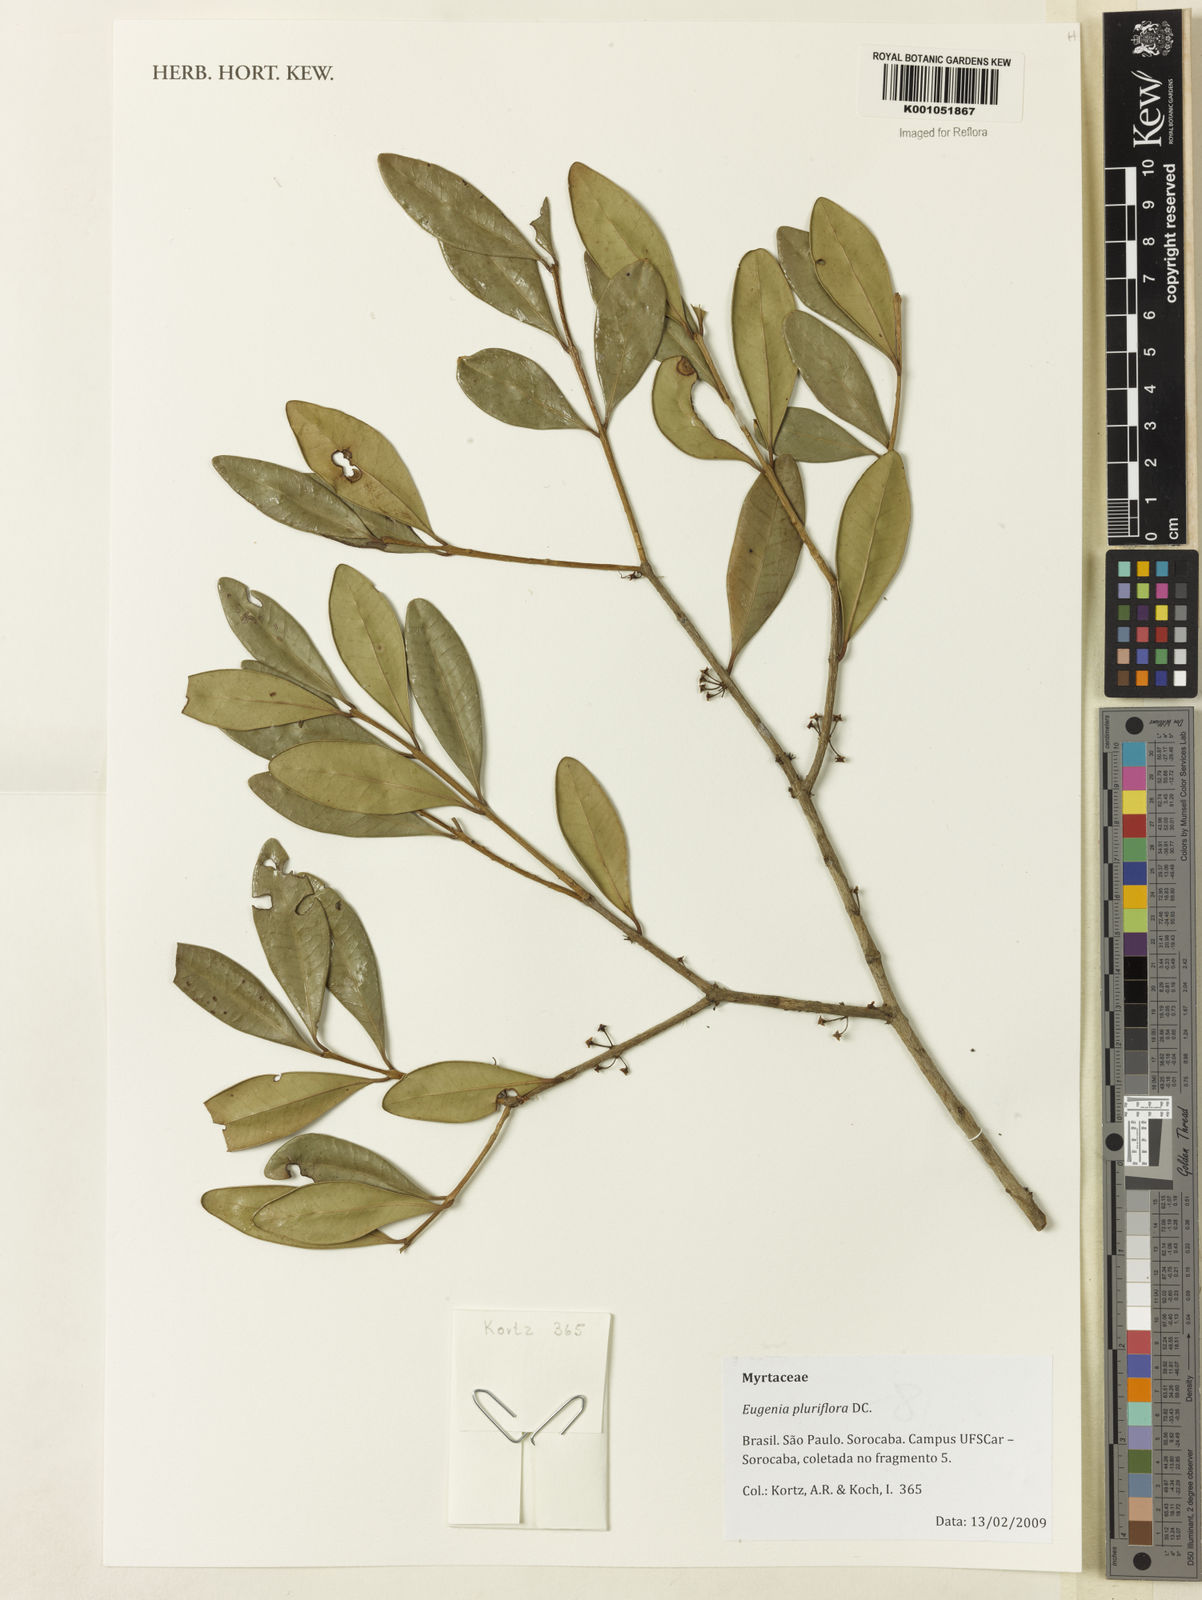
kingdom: Plantae
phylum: Tracheophyta
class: Magnoliopsida
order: Myrtales
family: Myrtaceae
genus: Eugenia
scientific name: Eugenia pluriflora
